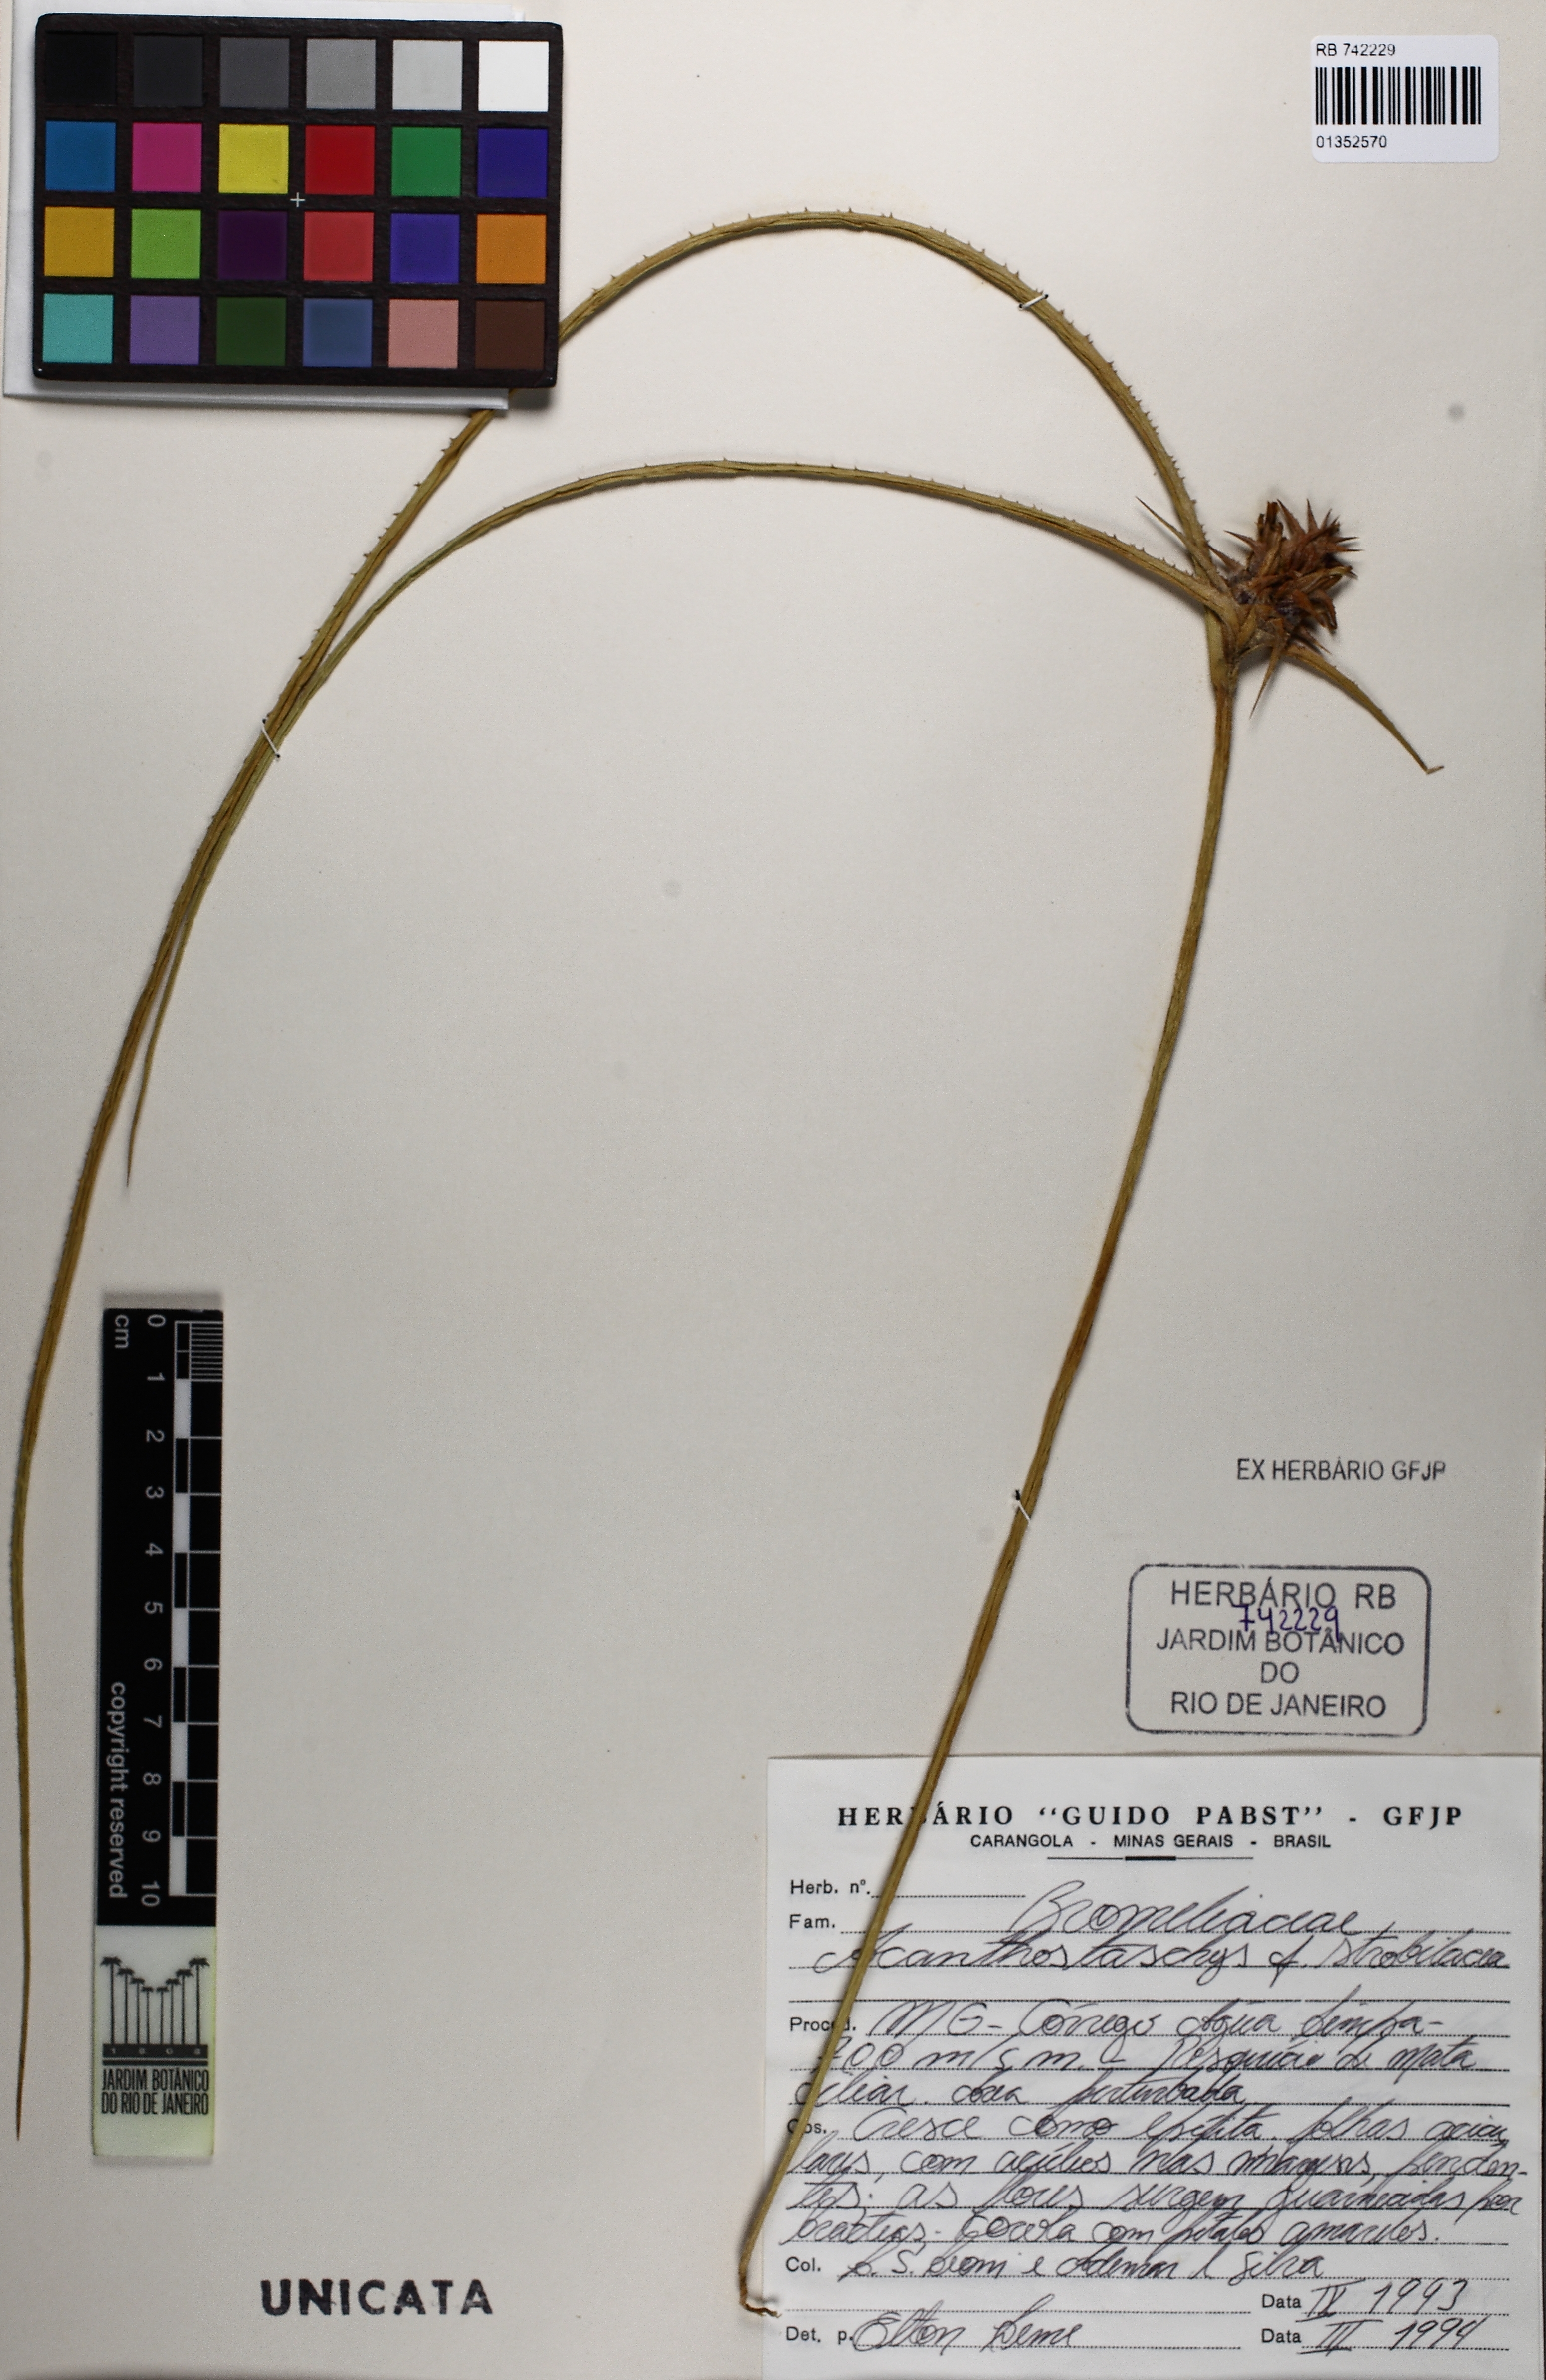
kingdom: Plantae
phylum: Tracheophyta
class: Liliopsida
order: Poales
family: Bromeliaceae
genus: Acanthostachys
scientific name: Acanthostachys strobilacea
